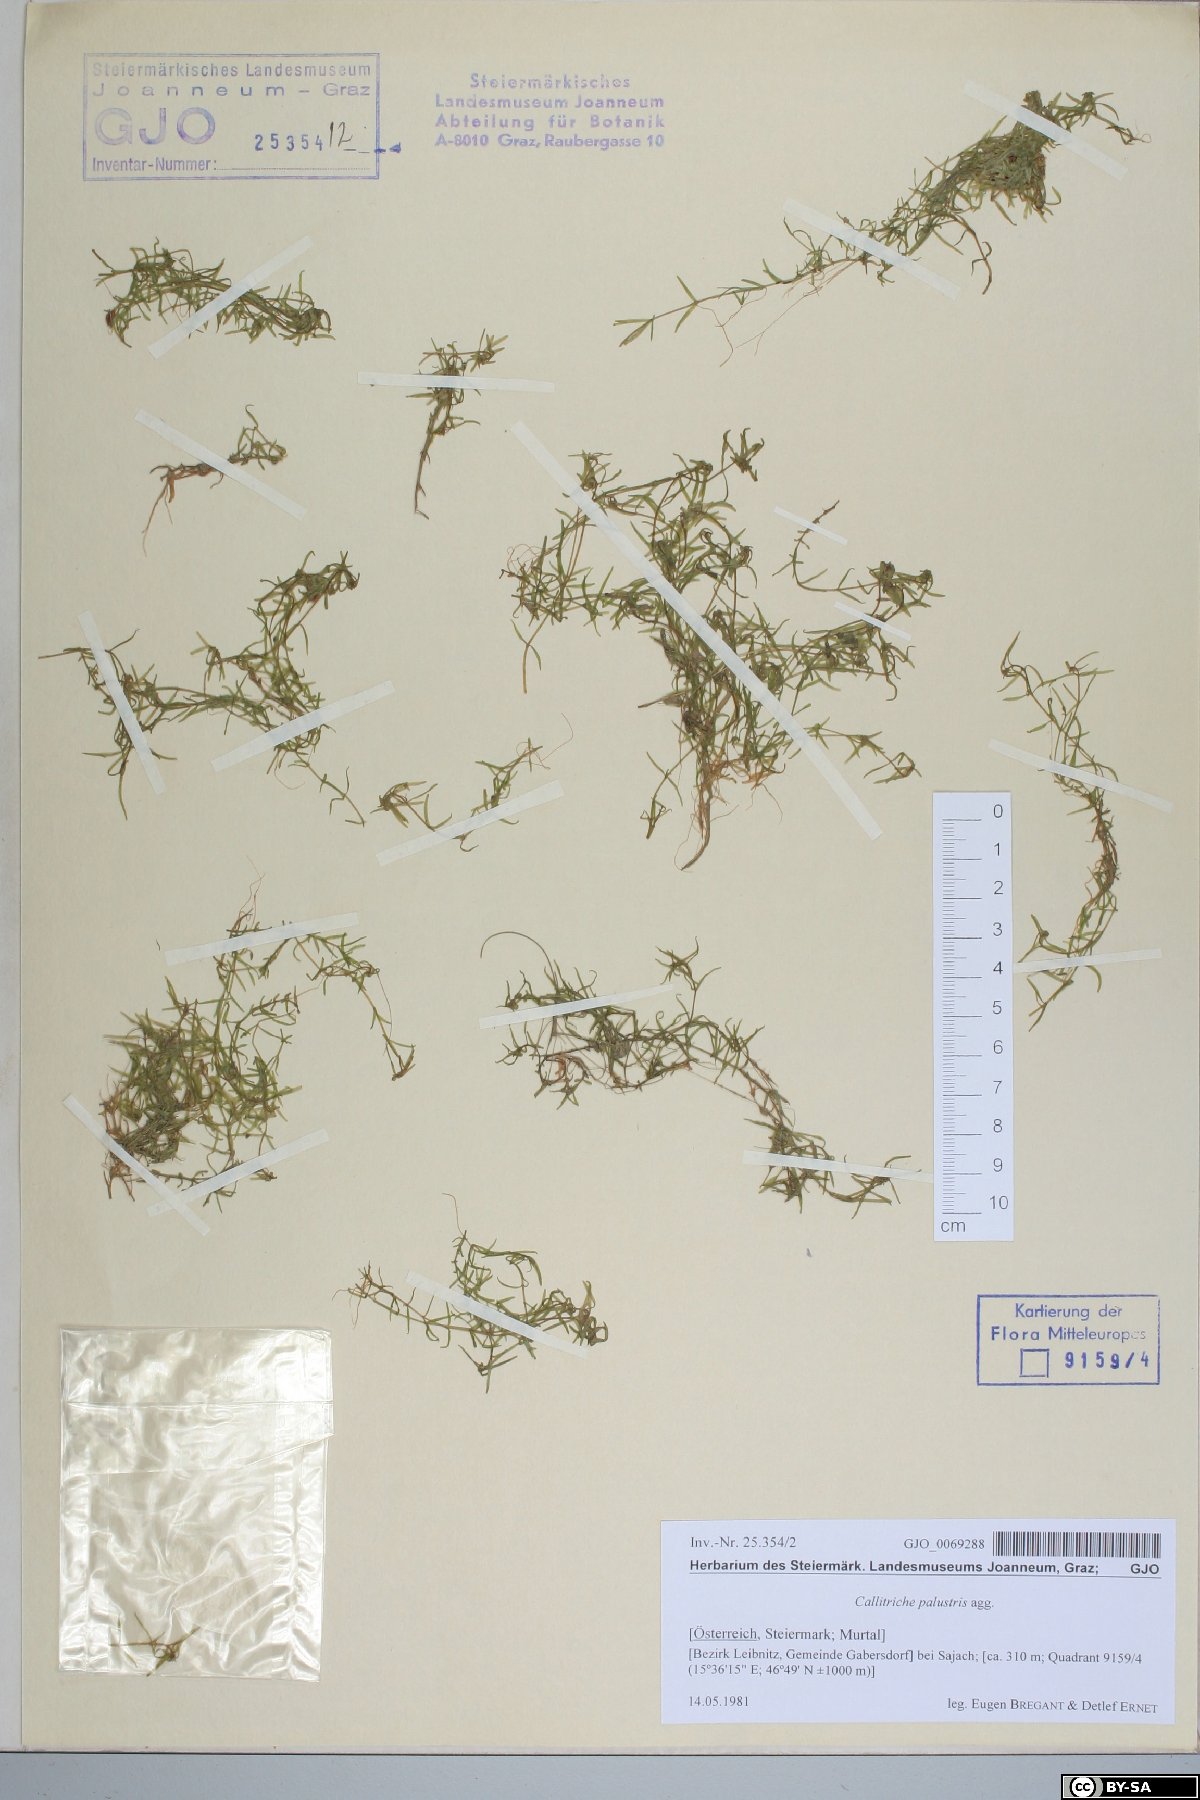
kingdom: Plantae
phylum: Tracheophyta
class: Magnoliopsida
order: Lamiales
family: Plantaginaceae
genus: Callitriche
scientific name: Callitriche palustris
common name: Spring water-starwort
